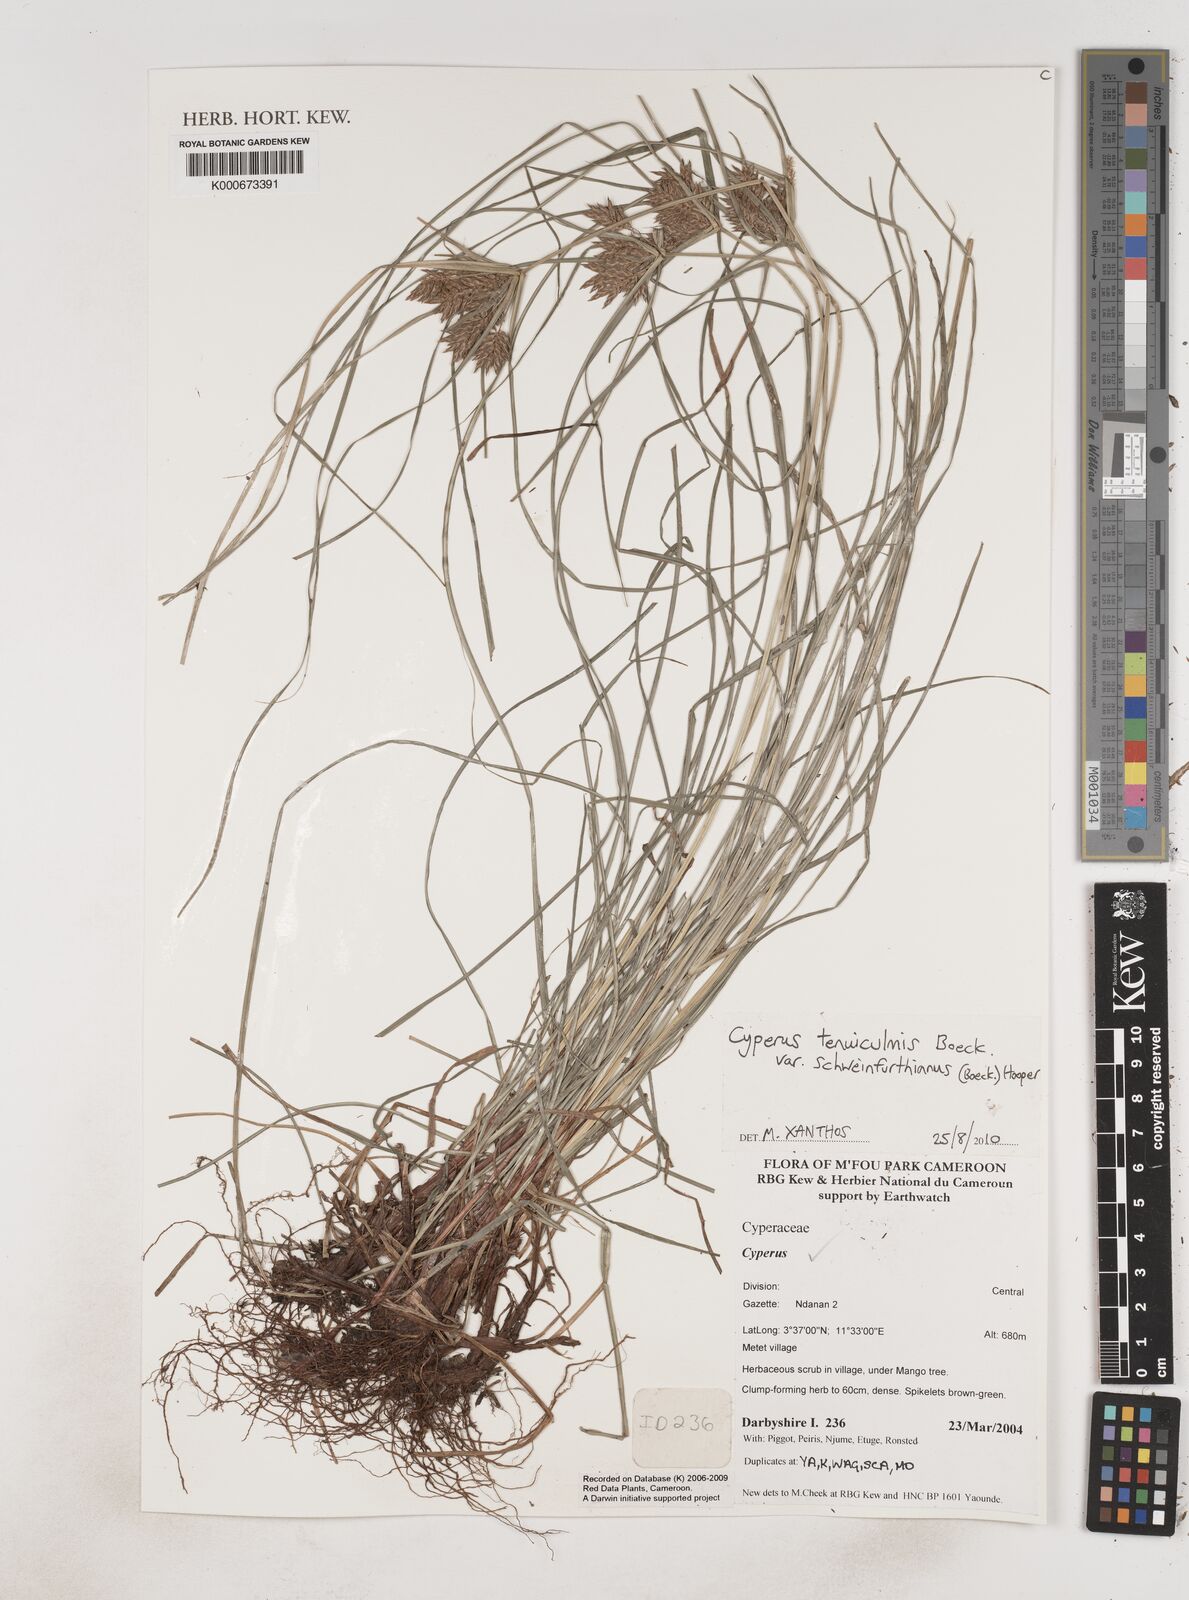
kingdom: Plantae
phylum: Tracheophyta
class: Liliopsida
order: Poales
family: Cyperaceae
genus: Cyperus
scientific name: Cyperus tenuiculmis
